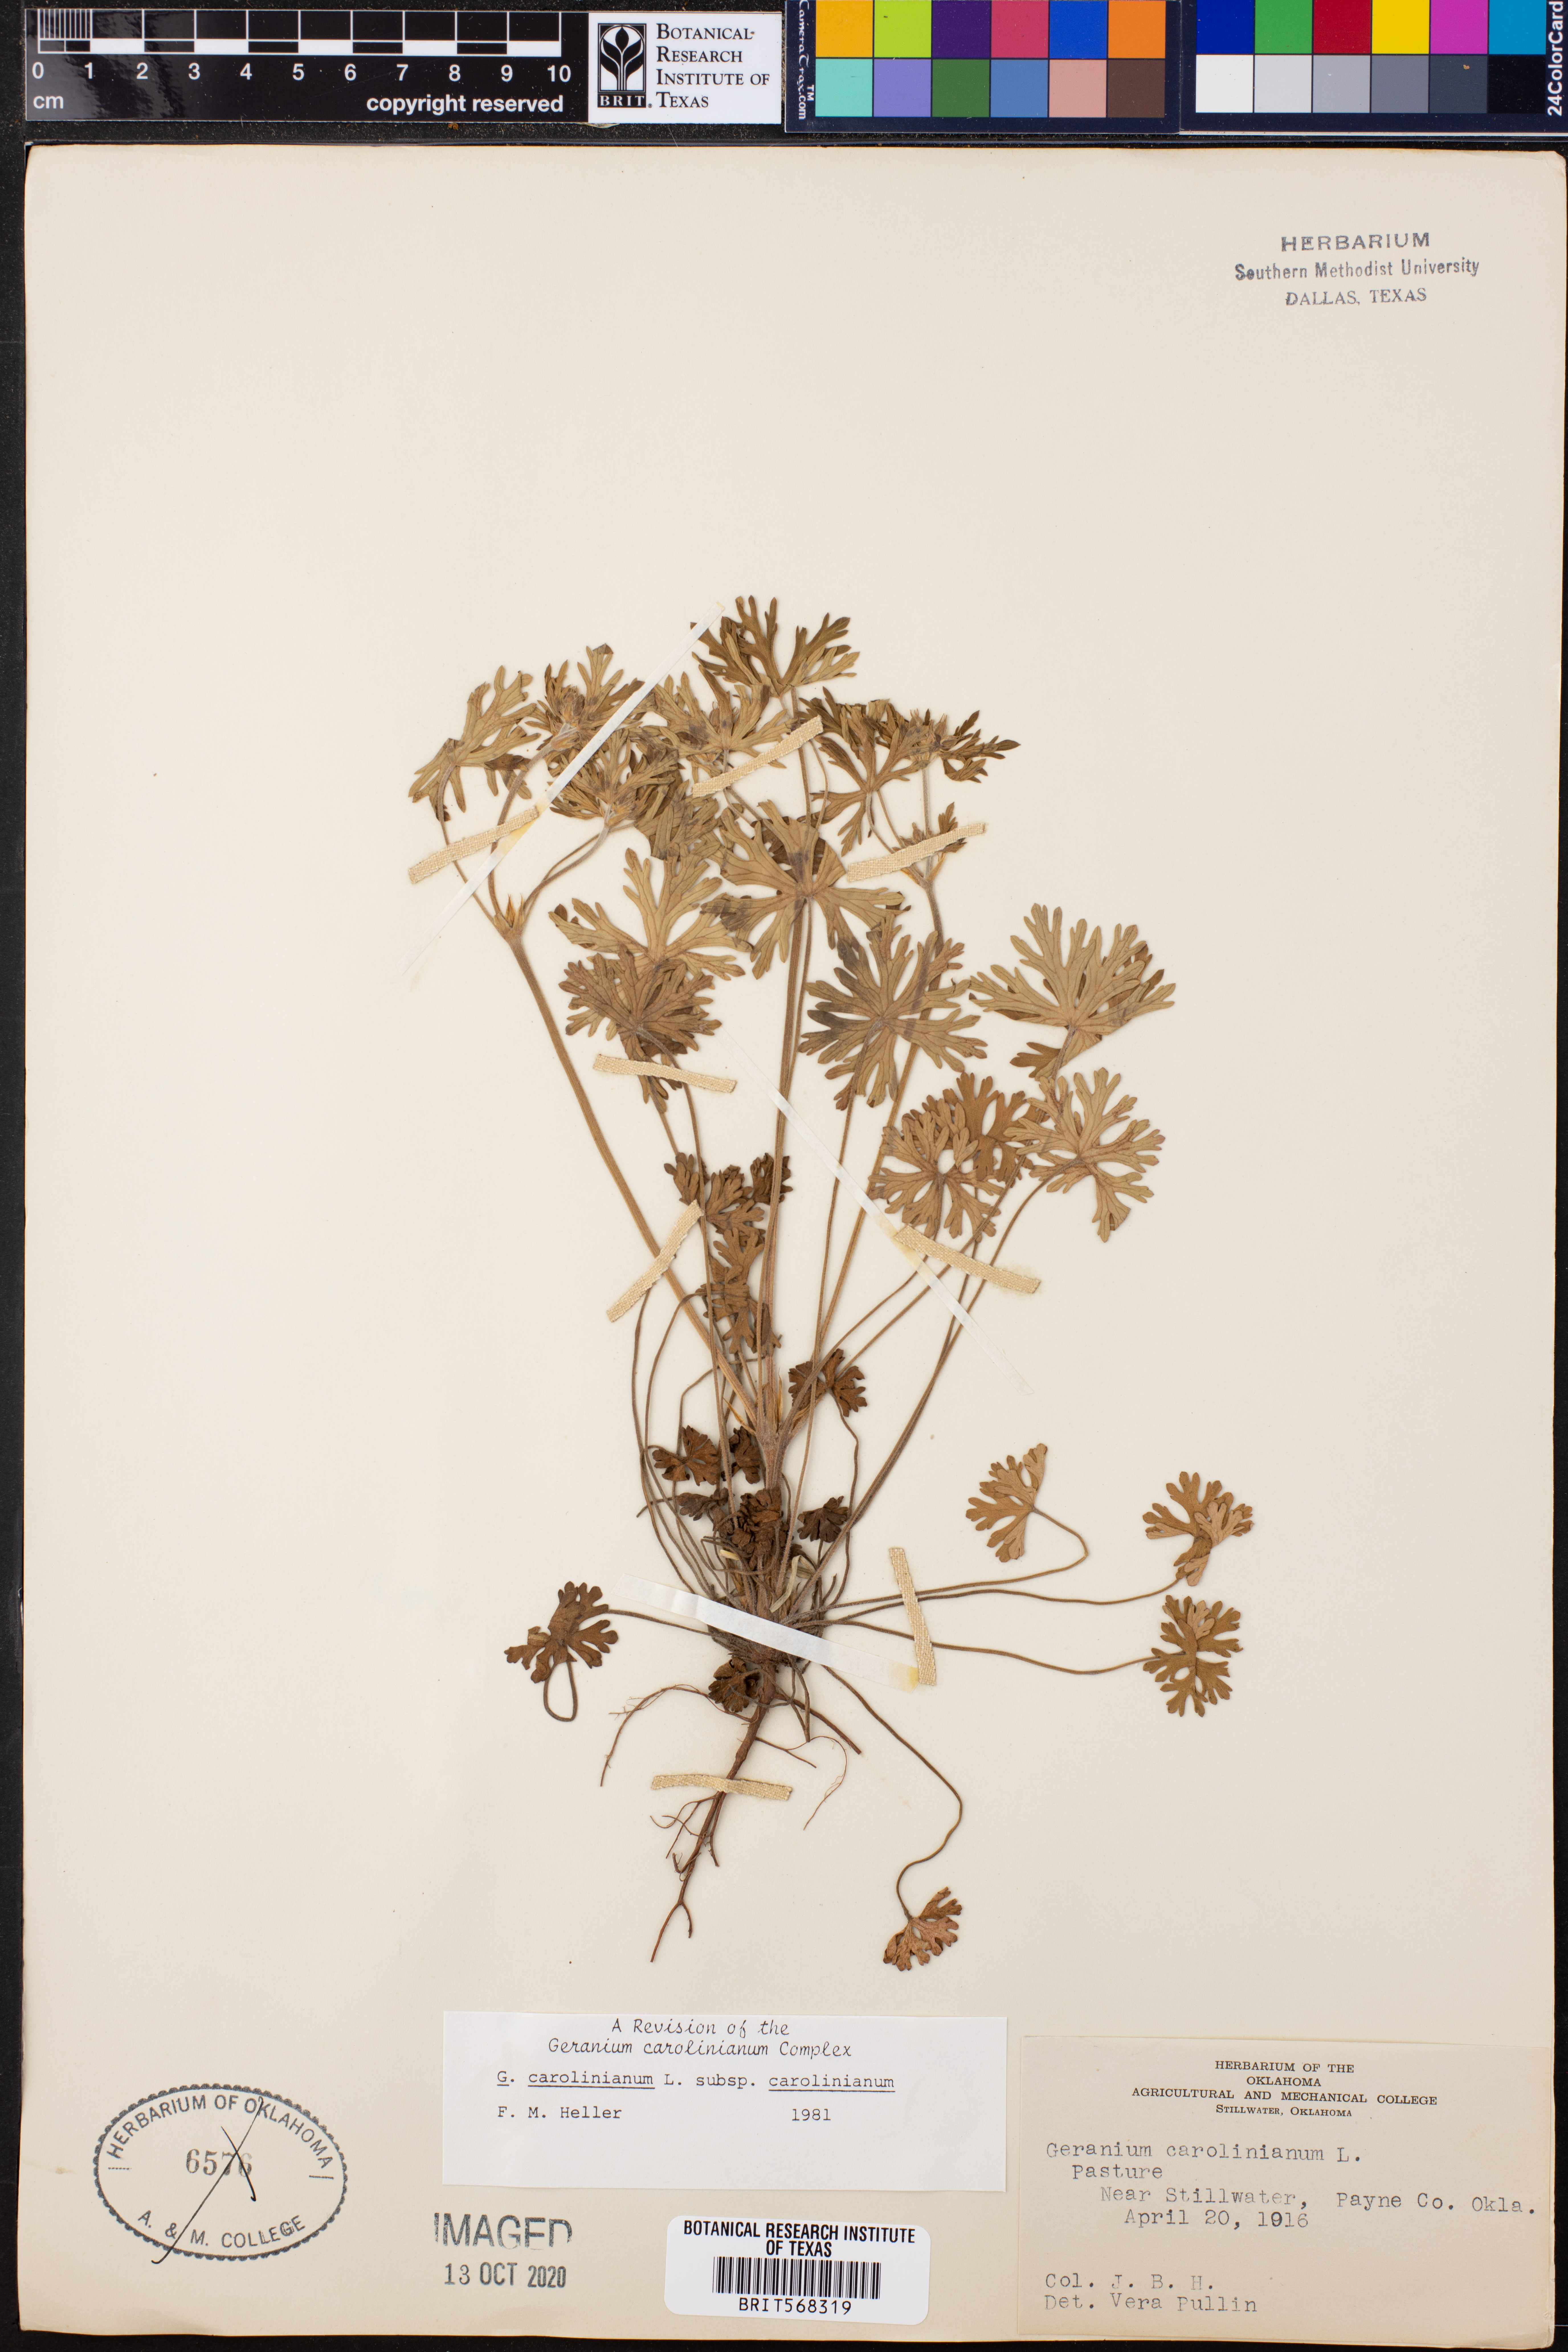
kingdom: Plantae
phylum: Tracheophyta
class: Magnoliopsida
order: Geraniales
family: Geraniaceae
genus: Geranium
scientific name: Geranium carolinianum
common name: Carolina crane's-bill
